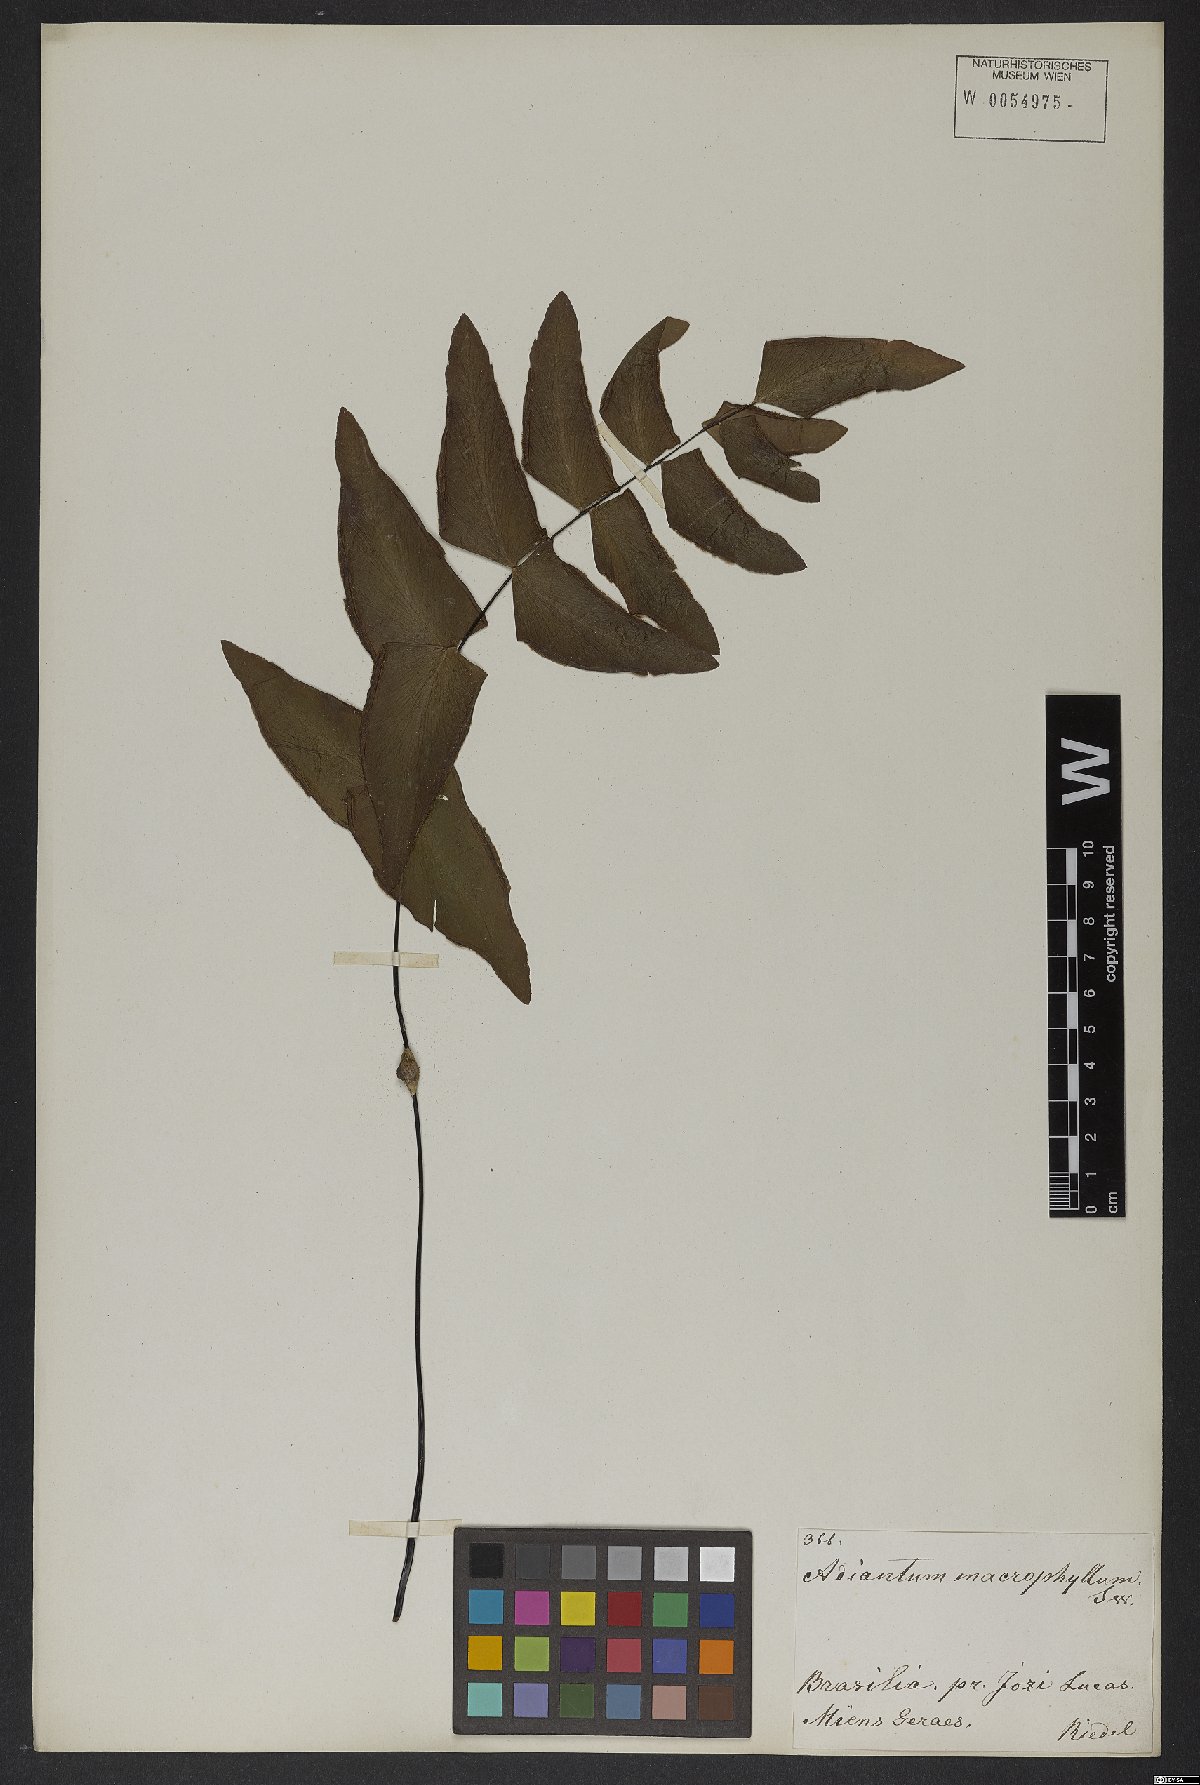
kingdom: Plantae
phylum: Tracheophyta
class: Polypodiopsida
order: Polypodiales
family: Pteridaceae
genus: Adiantum
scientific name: Adiantum macrophyllum
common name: Largeleaf maidenhair
